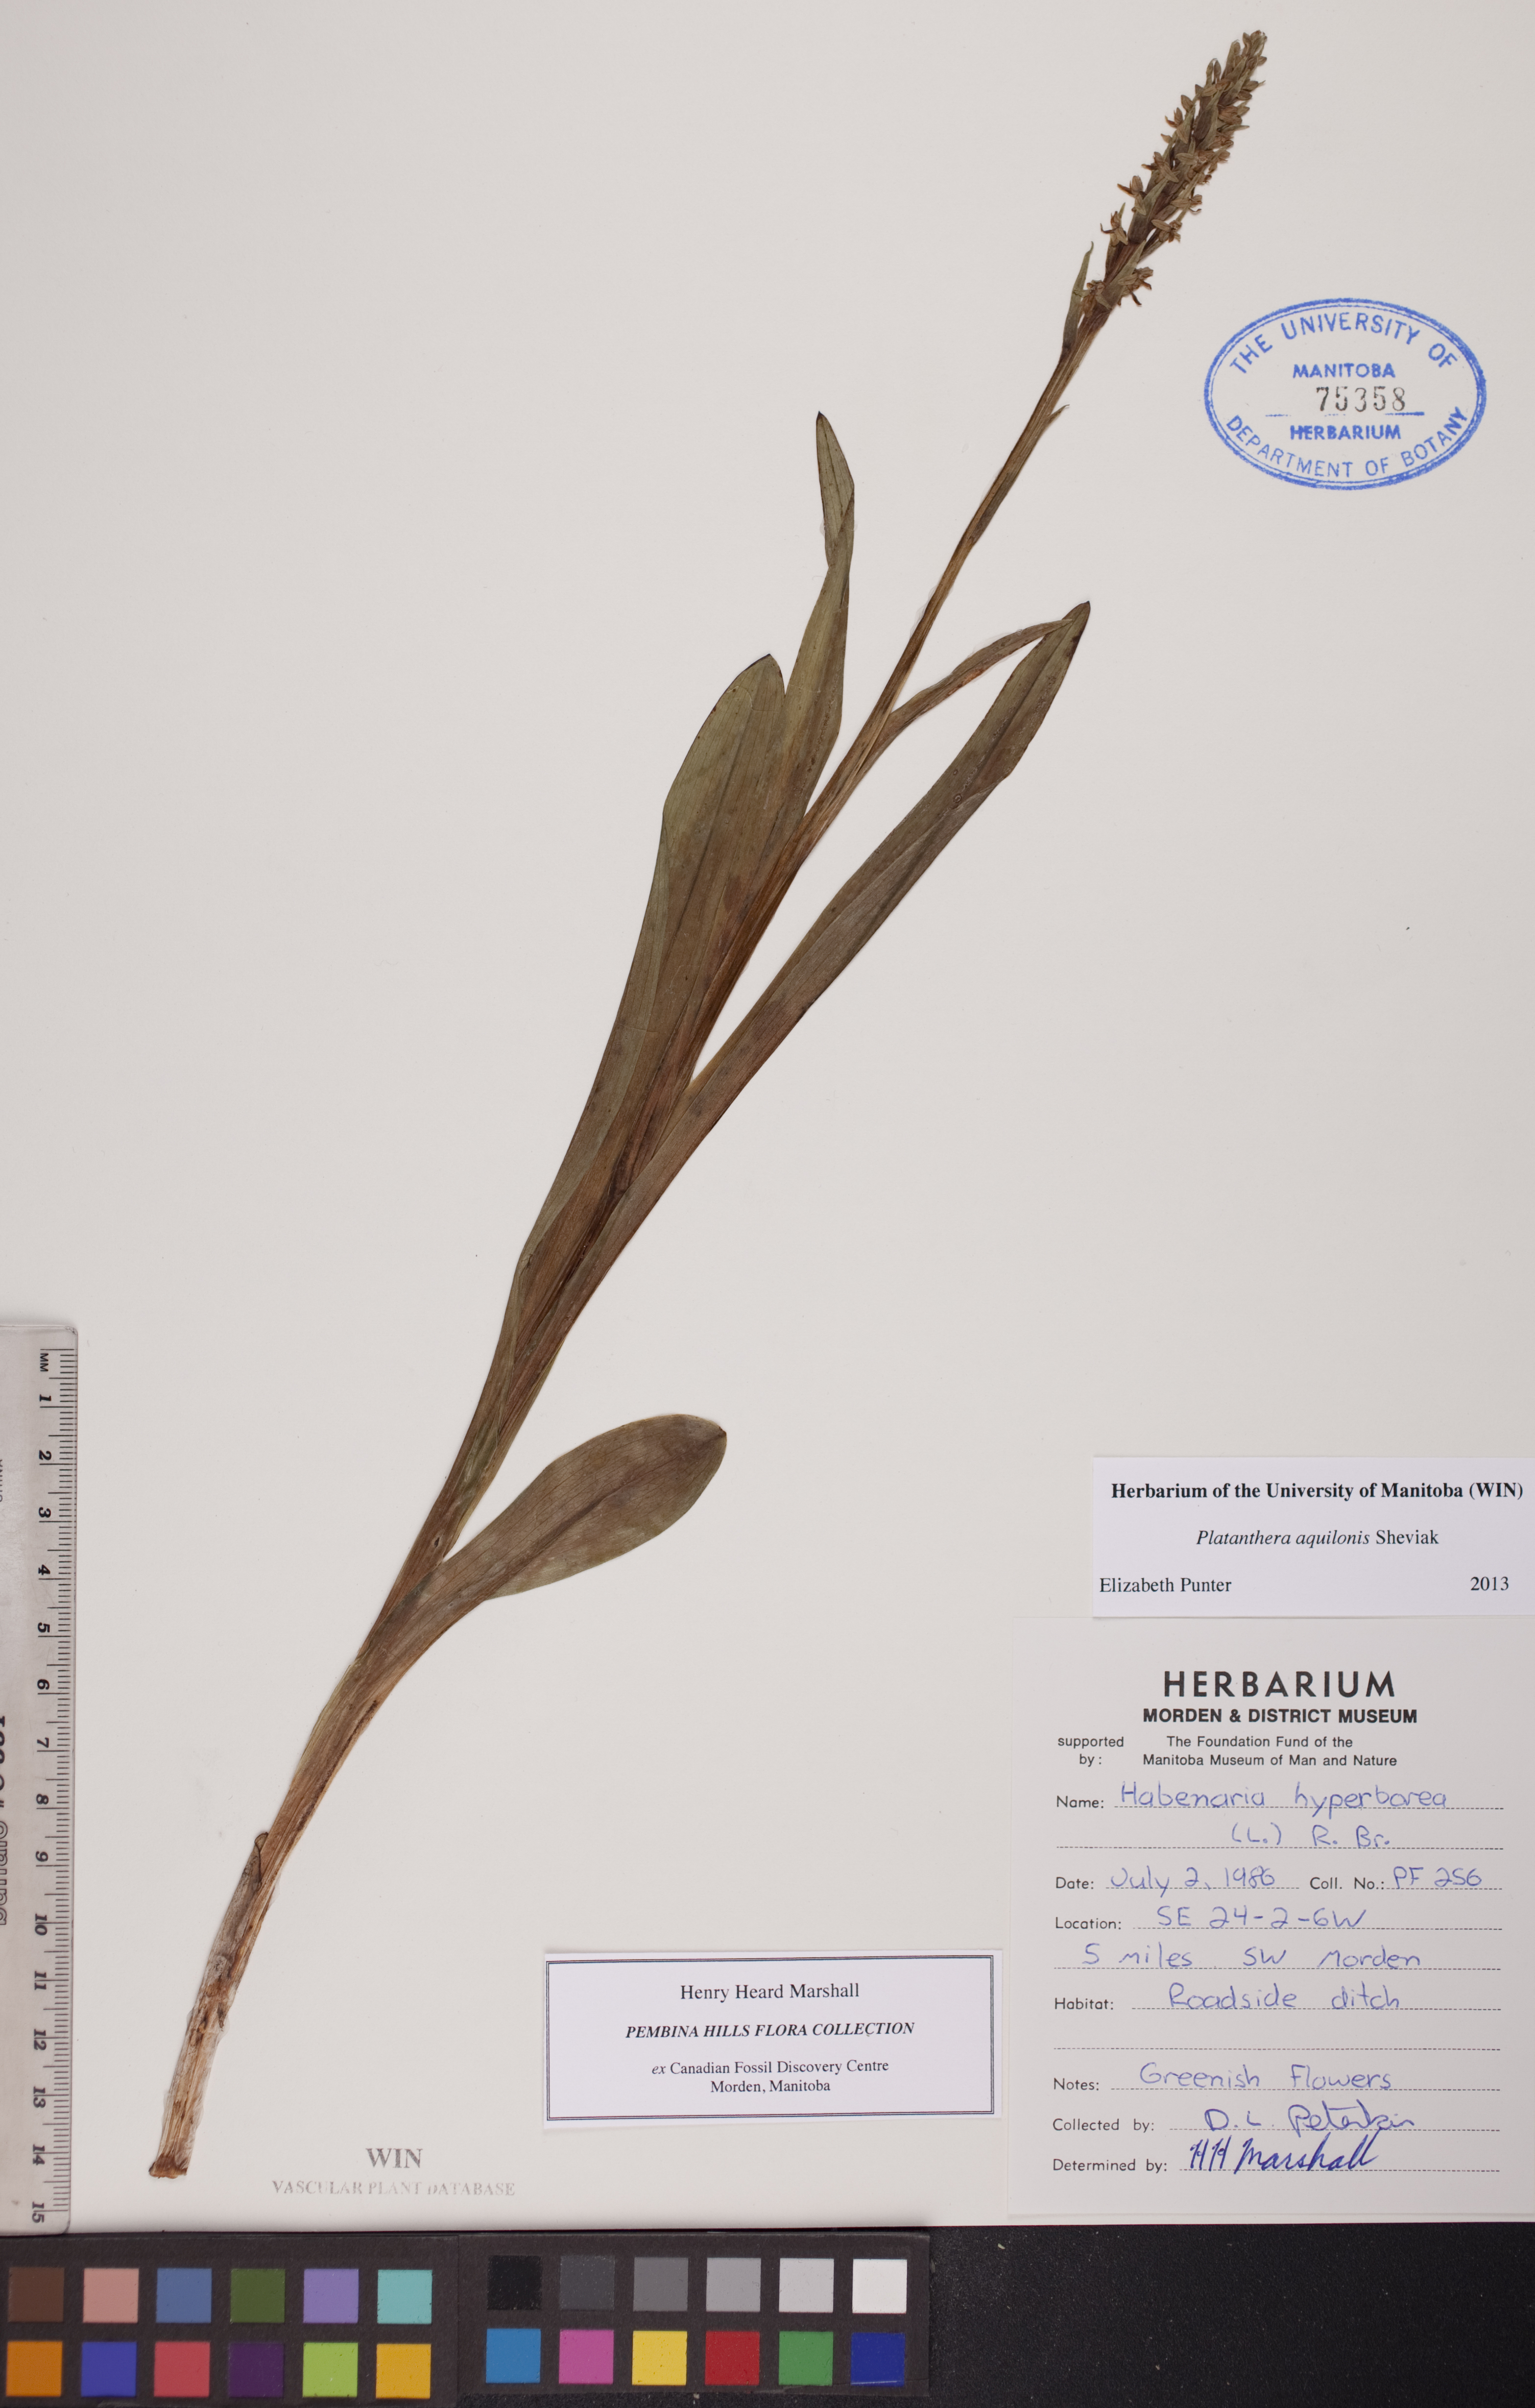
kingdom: Plantae
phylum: Tracheophyta
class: Liliopsida
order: Asparagales
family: Orchidaceae
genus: Platanthera
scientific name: Platanthera aquilonis
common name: Northern green orchid
